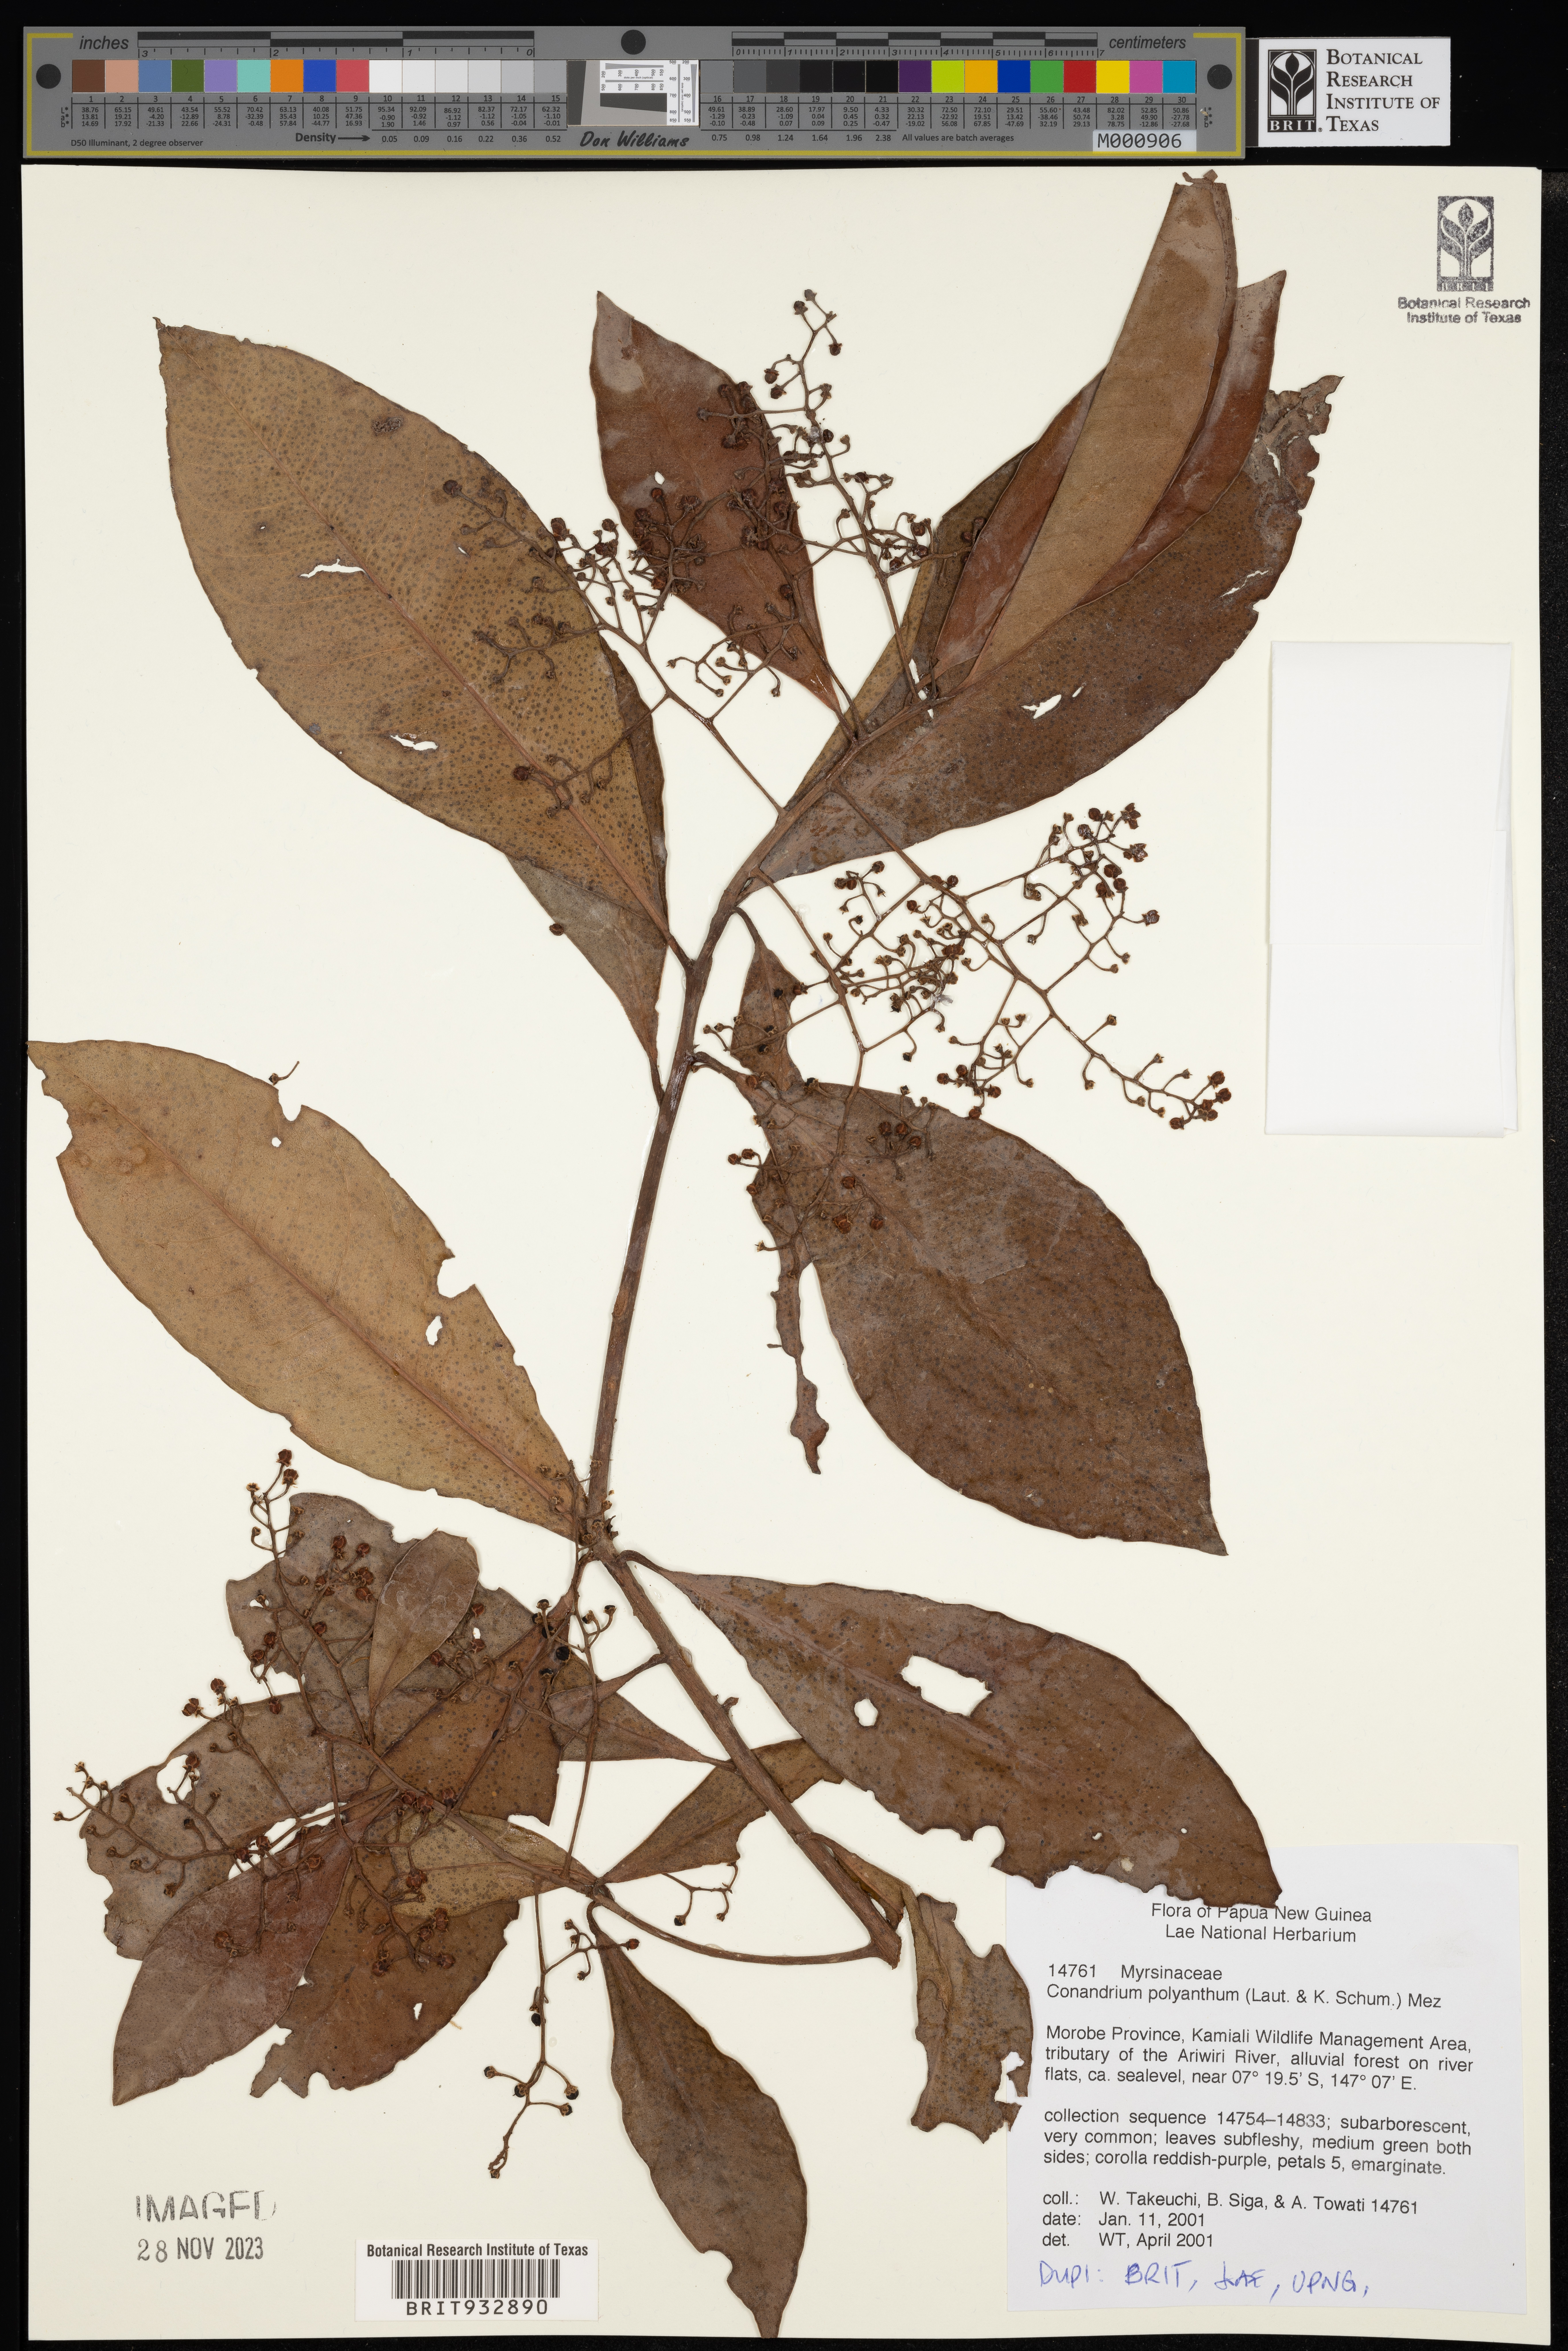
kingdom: Plantae
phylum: Tracheophyta
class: Magnoliopsida
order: Ericales
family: Primulaceae
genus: Conandrium
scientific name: Conandrium
